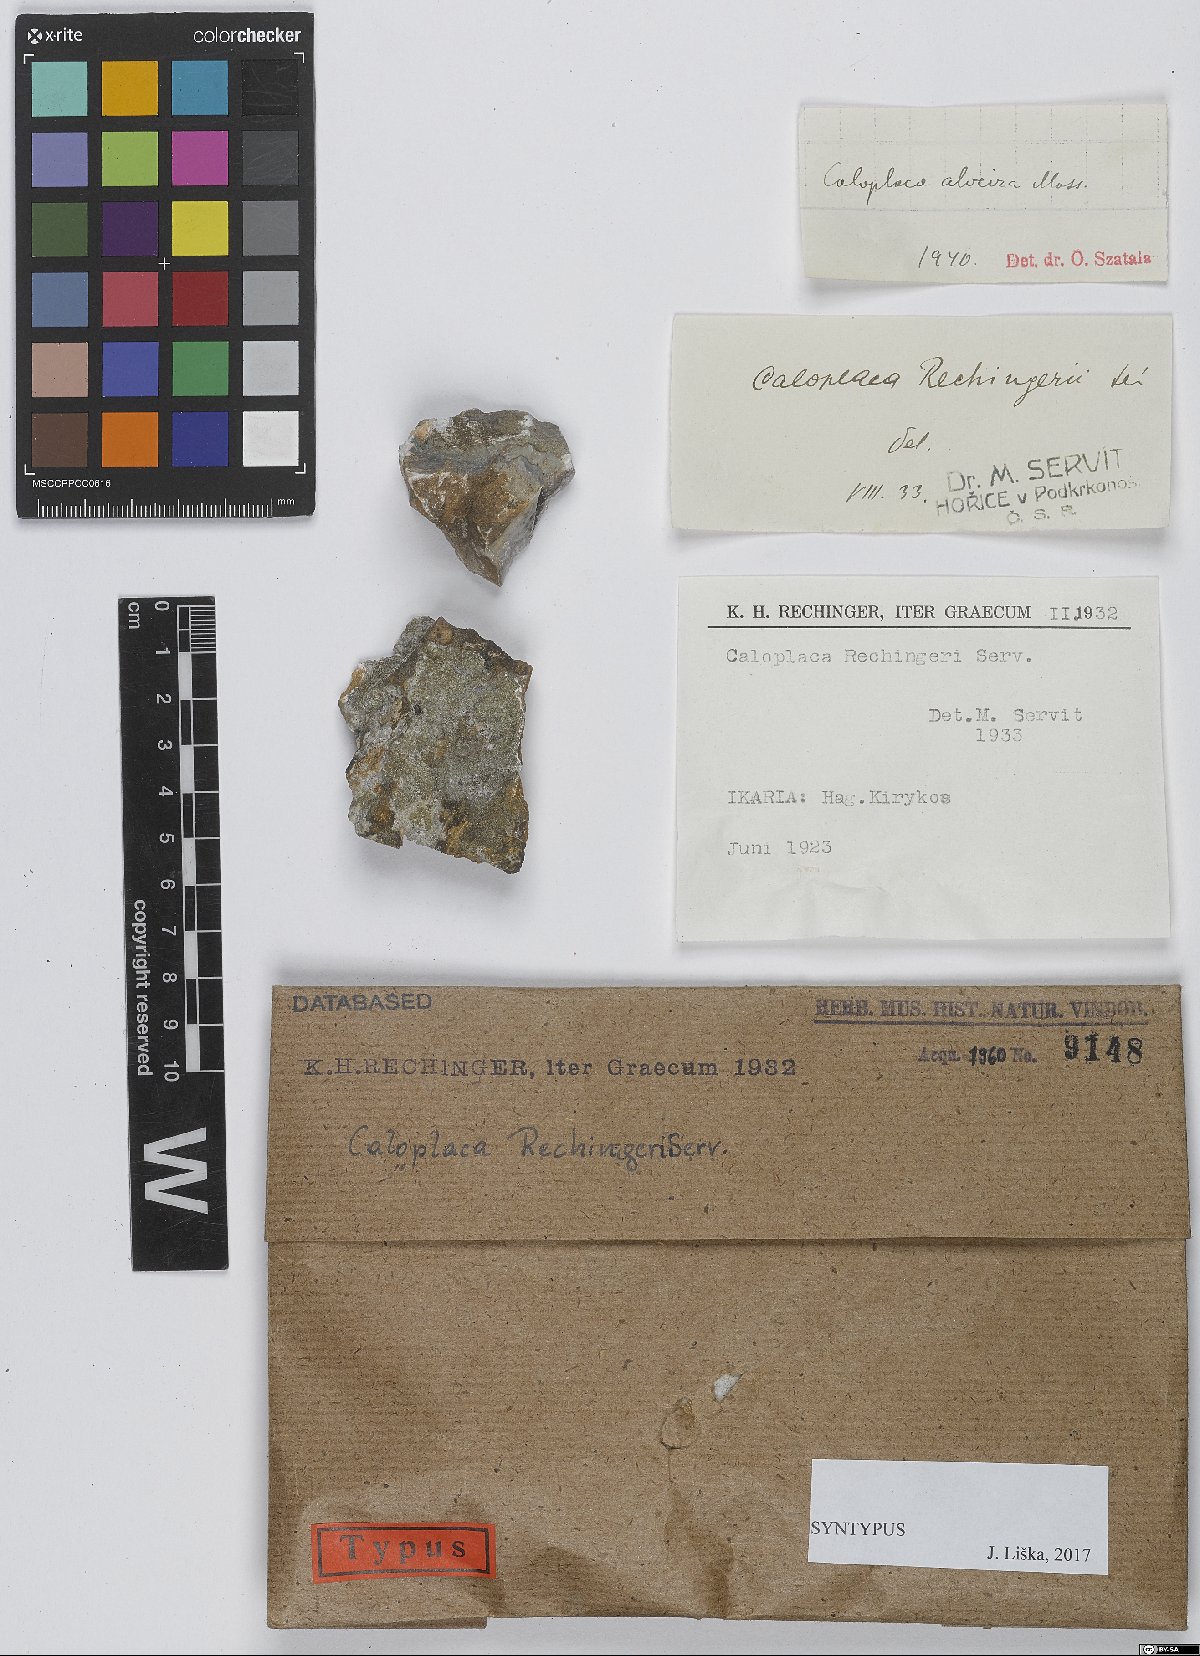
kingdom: Fungi
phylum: Ascomycota
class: Lecanoromycetes
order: Teloschistales
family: Teloschistaceae
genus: Caloplaca
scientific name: Caloplaca
